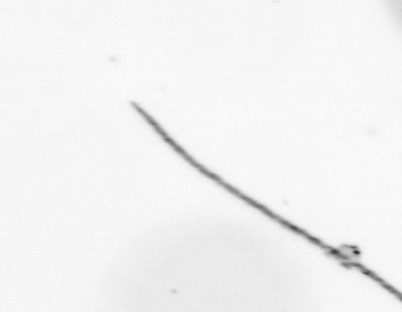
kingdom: Chromista
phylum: Ochrophyta
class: Bacillariophyceae
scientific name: Bacillariophyceae
